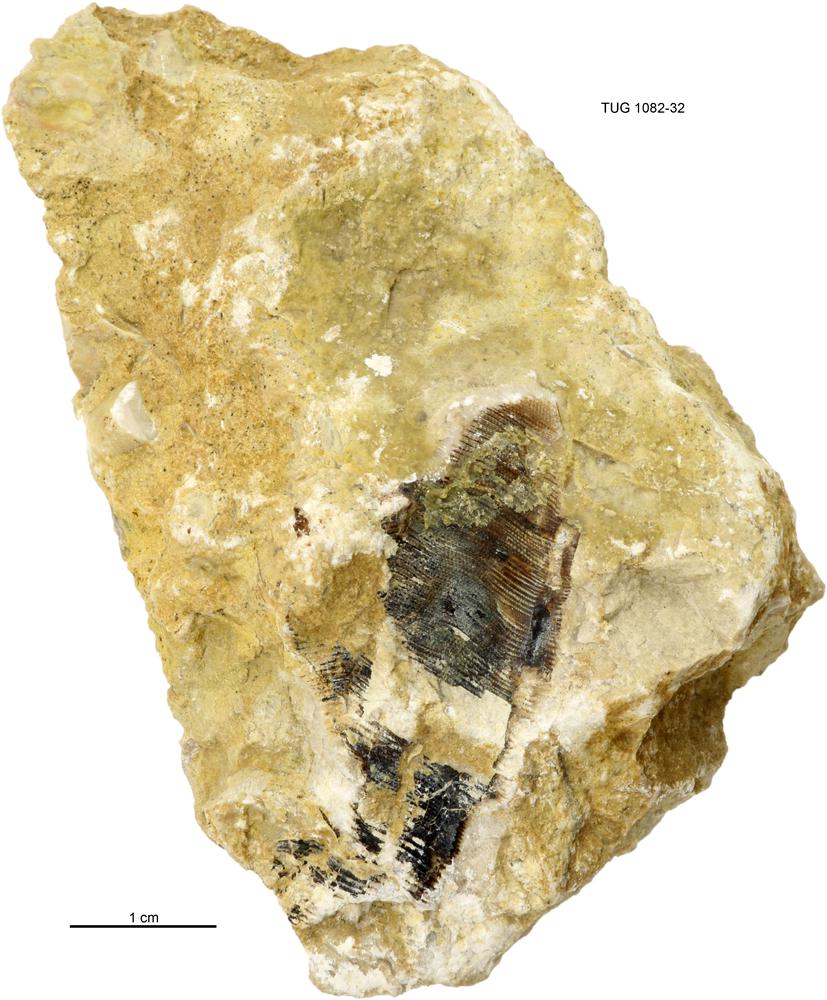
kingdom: Animalia
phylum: Cnidaria
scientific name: Cnidaria
